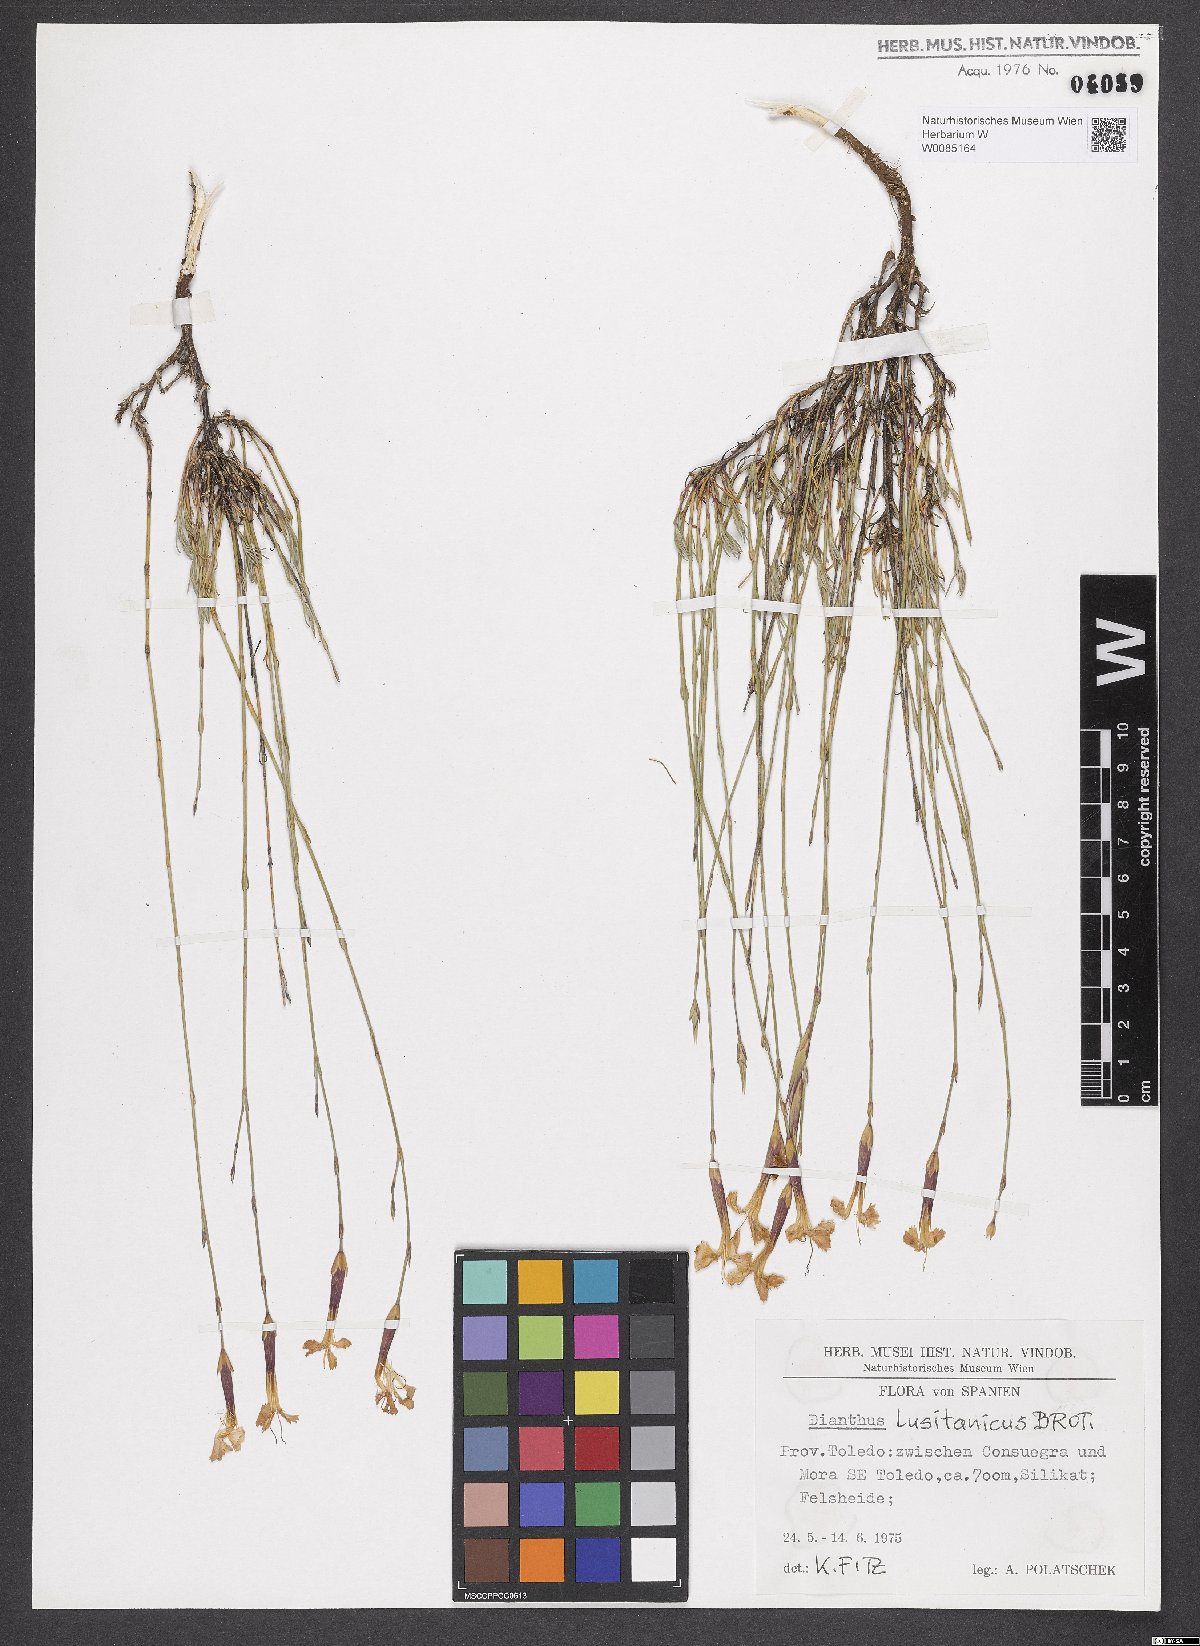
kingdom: Plantae
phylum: Tracheophyta
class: Magnoliopsida
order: Caryophyllales
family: Caryophyllaceae
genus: Dianthus
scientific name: Dianthus lusitanus
